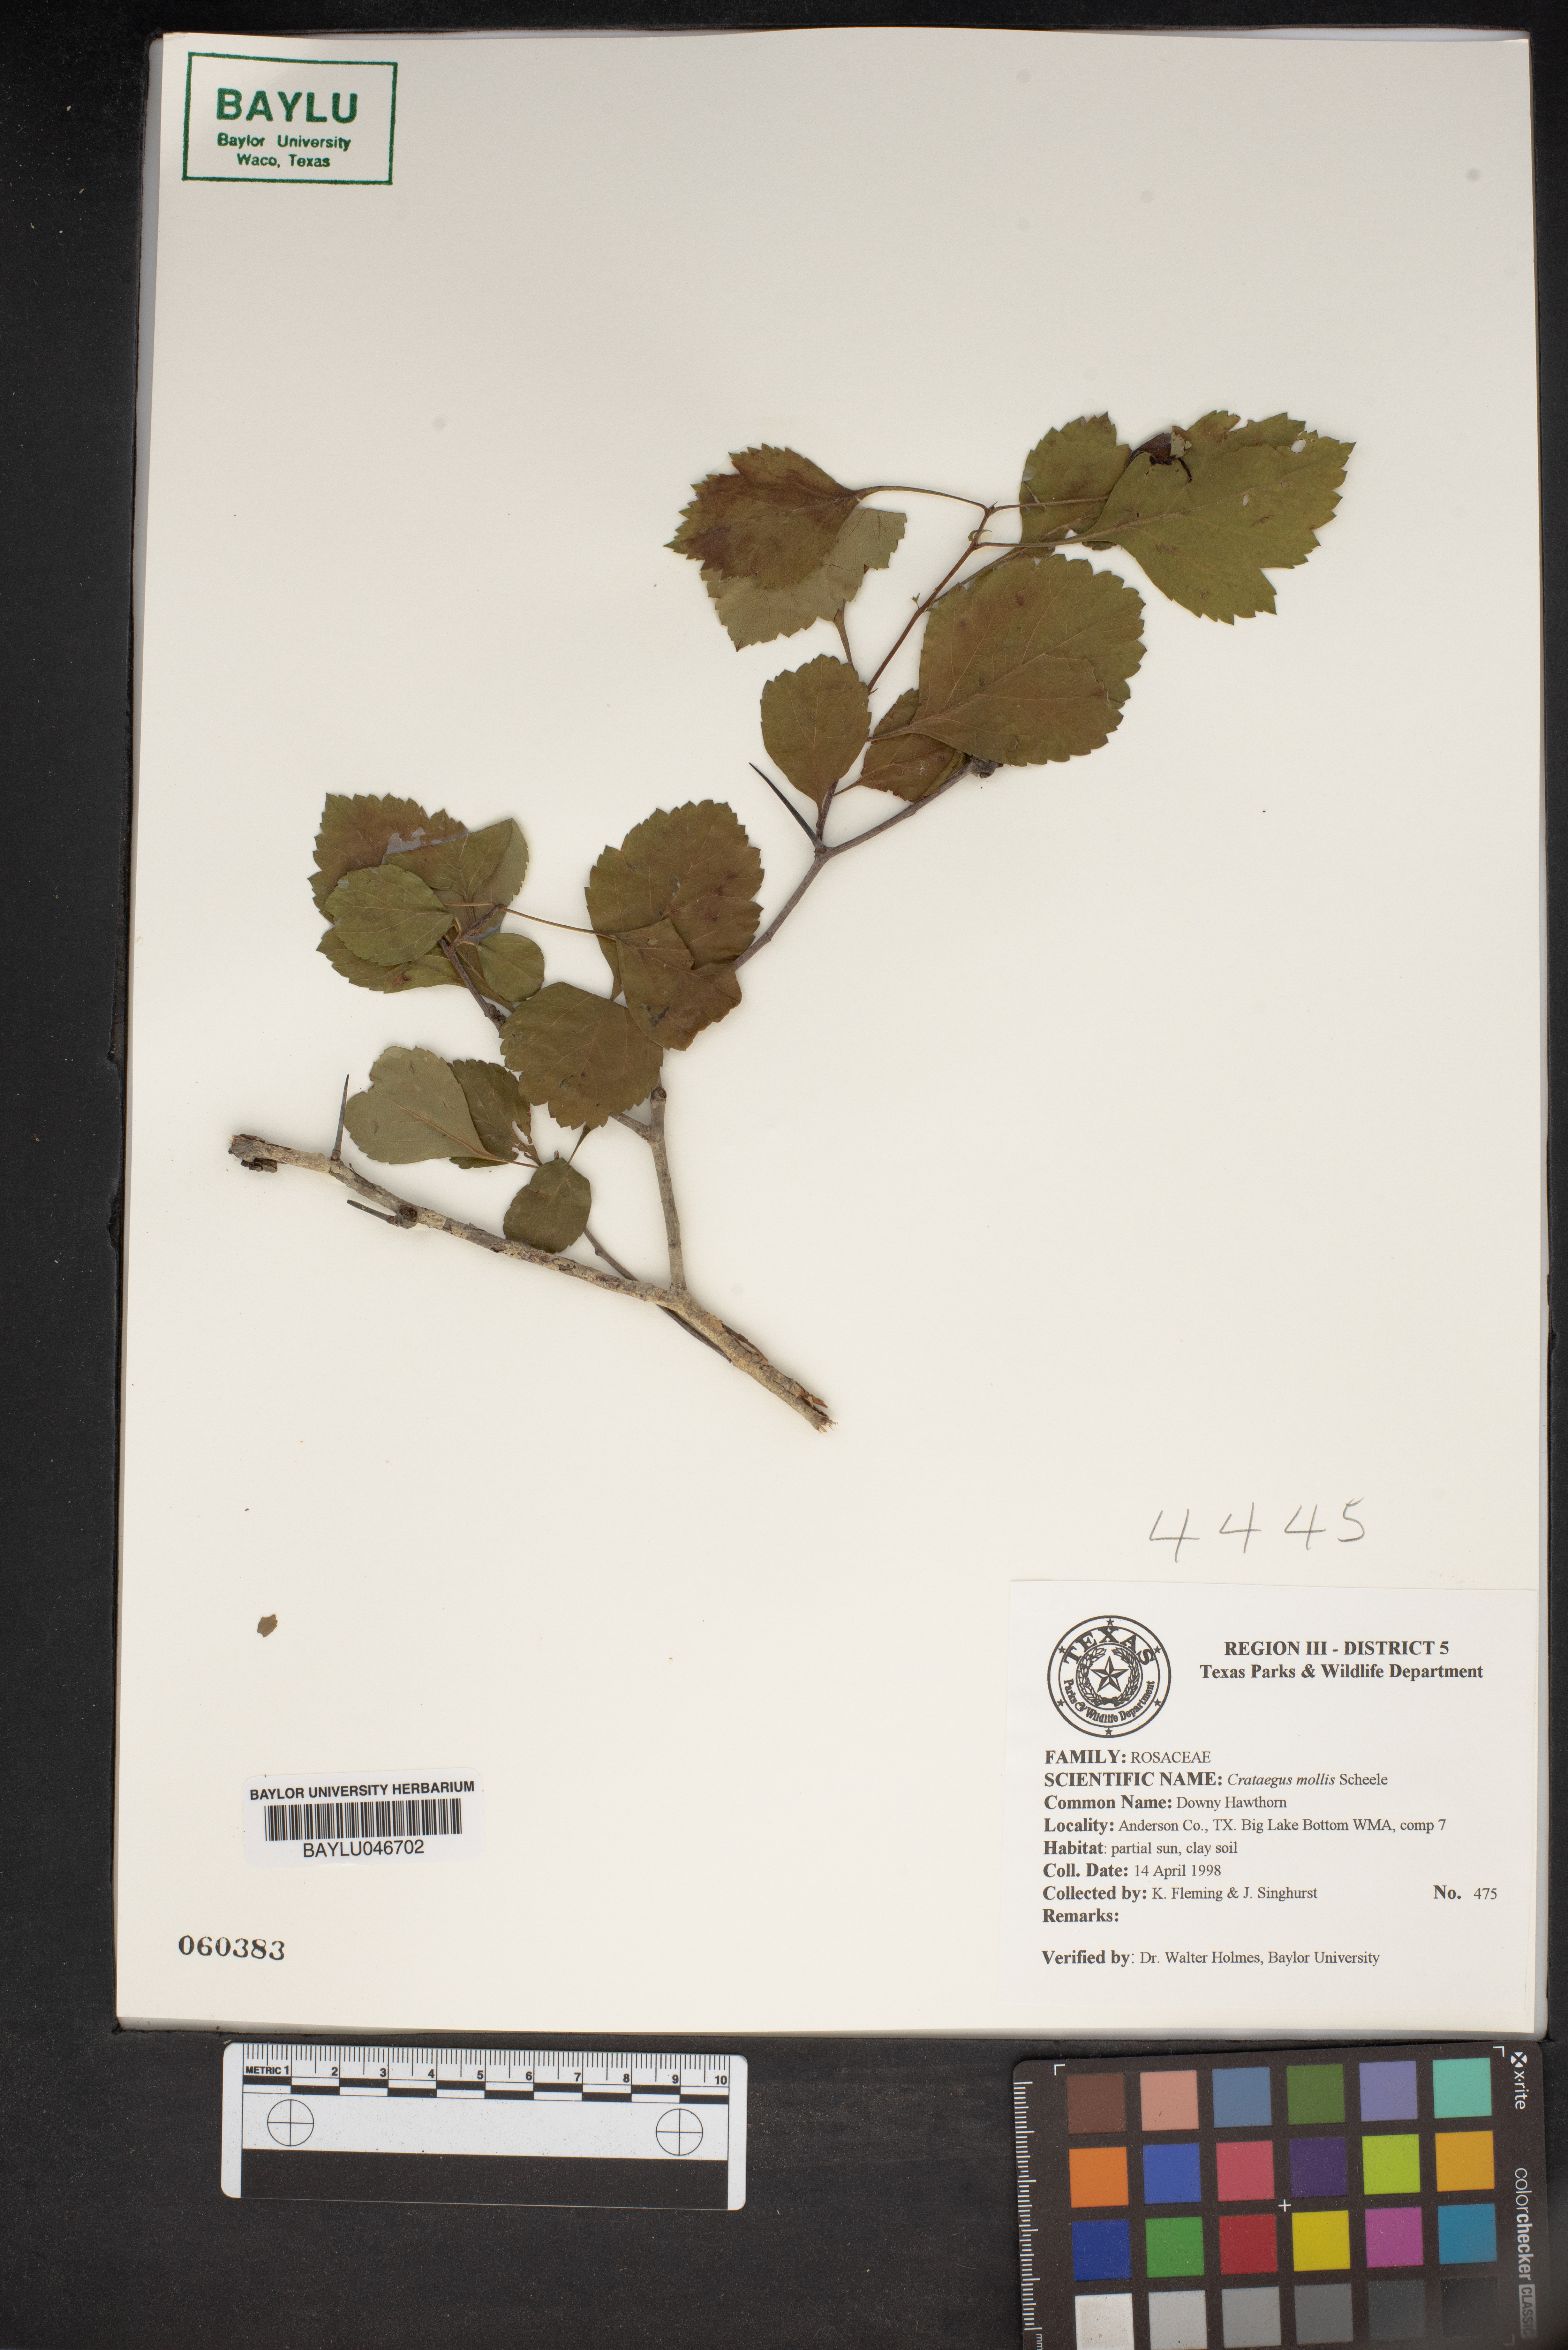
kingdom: Plantae
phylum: Tracheophyta
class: Magnoliopsida
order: Rosales
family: Rosaceae
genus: Crataegus
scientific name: Crataegus mollis
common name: Downy hawthorn
